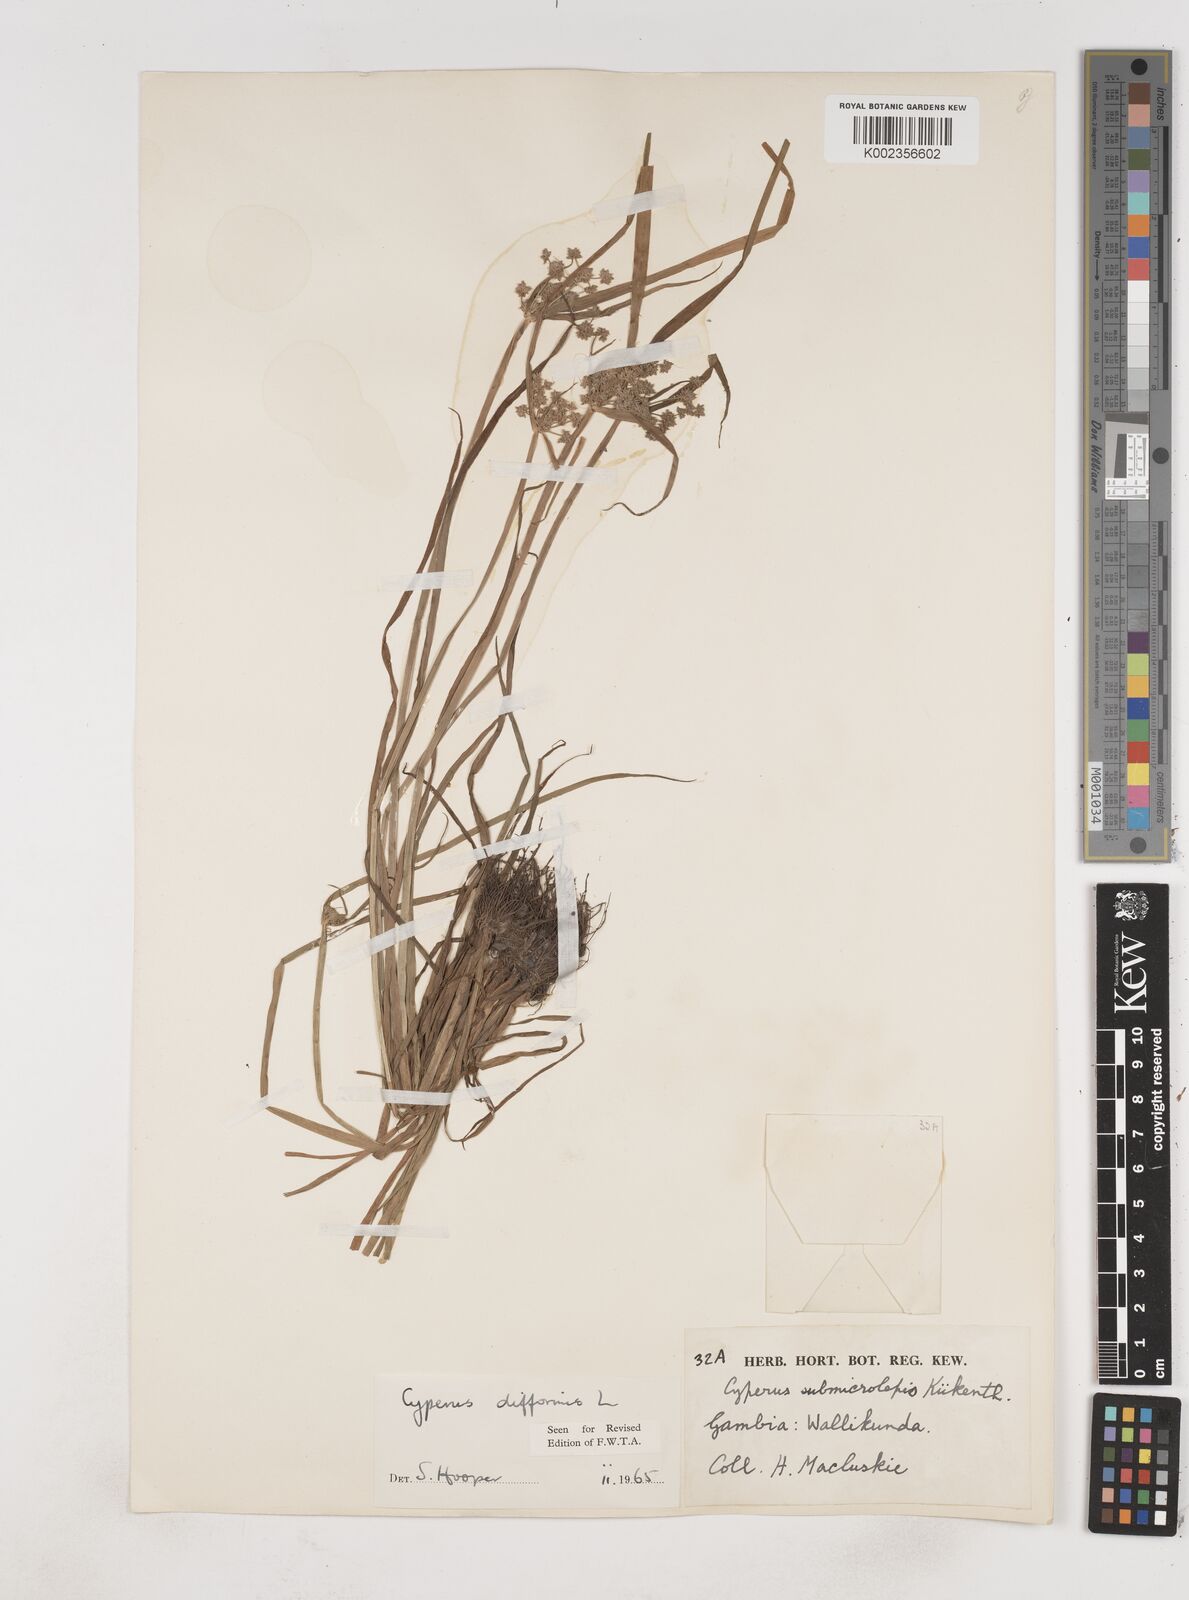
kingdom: Plantae
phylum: Tracheophyta
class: Liliopsida
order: Poales
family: Cyperaceae
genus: Cyperus
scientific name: Cyperus difformis
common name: Variable flatsedge
